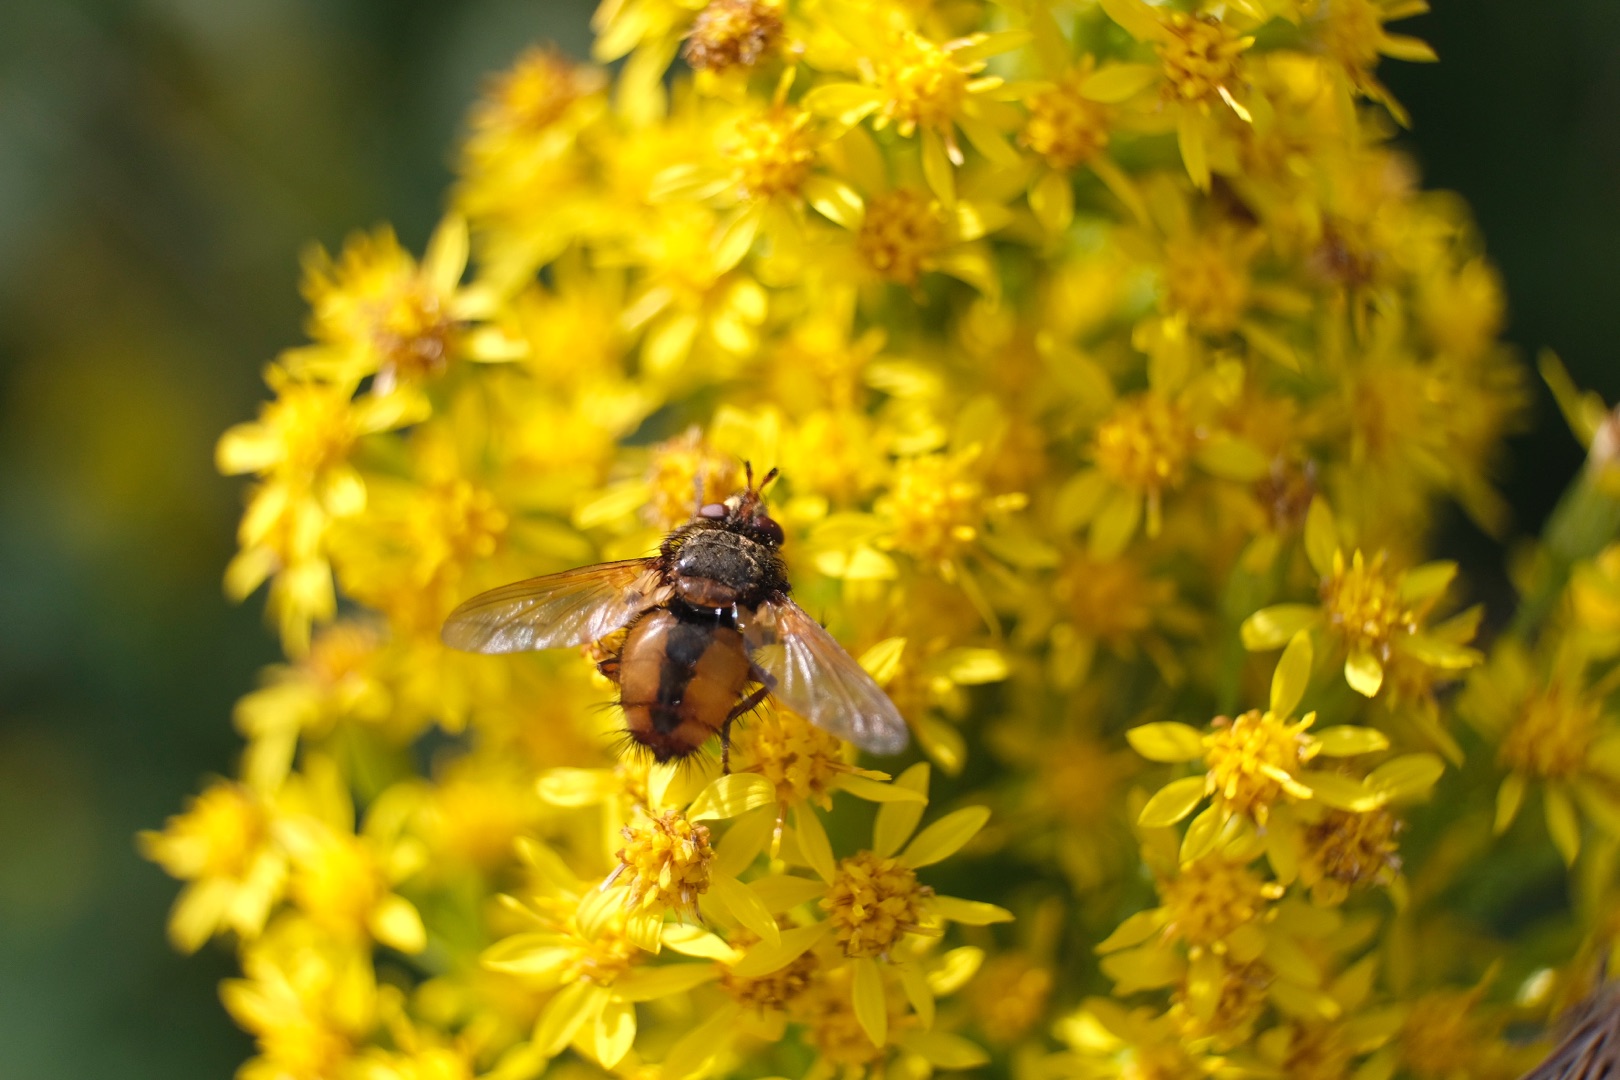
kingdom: Animalia
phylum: Arthropoda
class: Insecta
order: Diptera
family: Tachinidae
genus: Tachina
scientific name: Tachina fera
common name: Mellemfluen oskar
